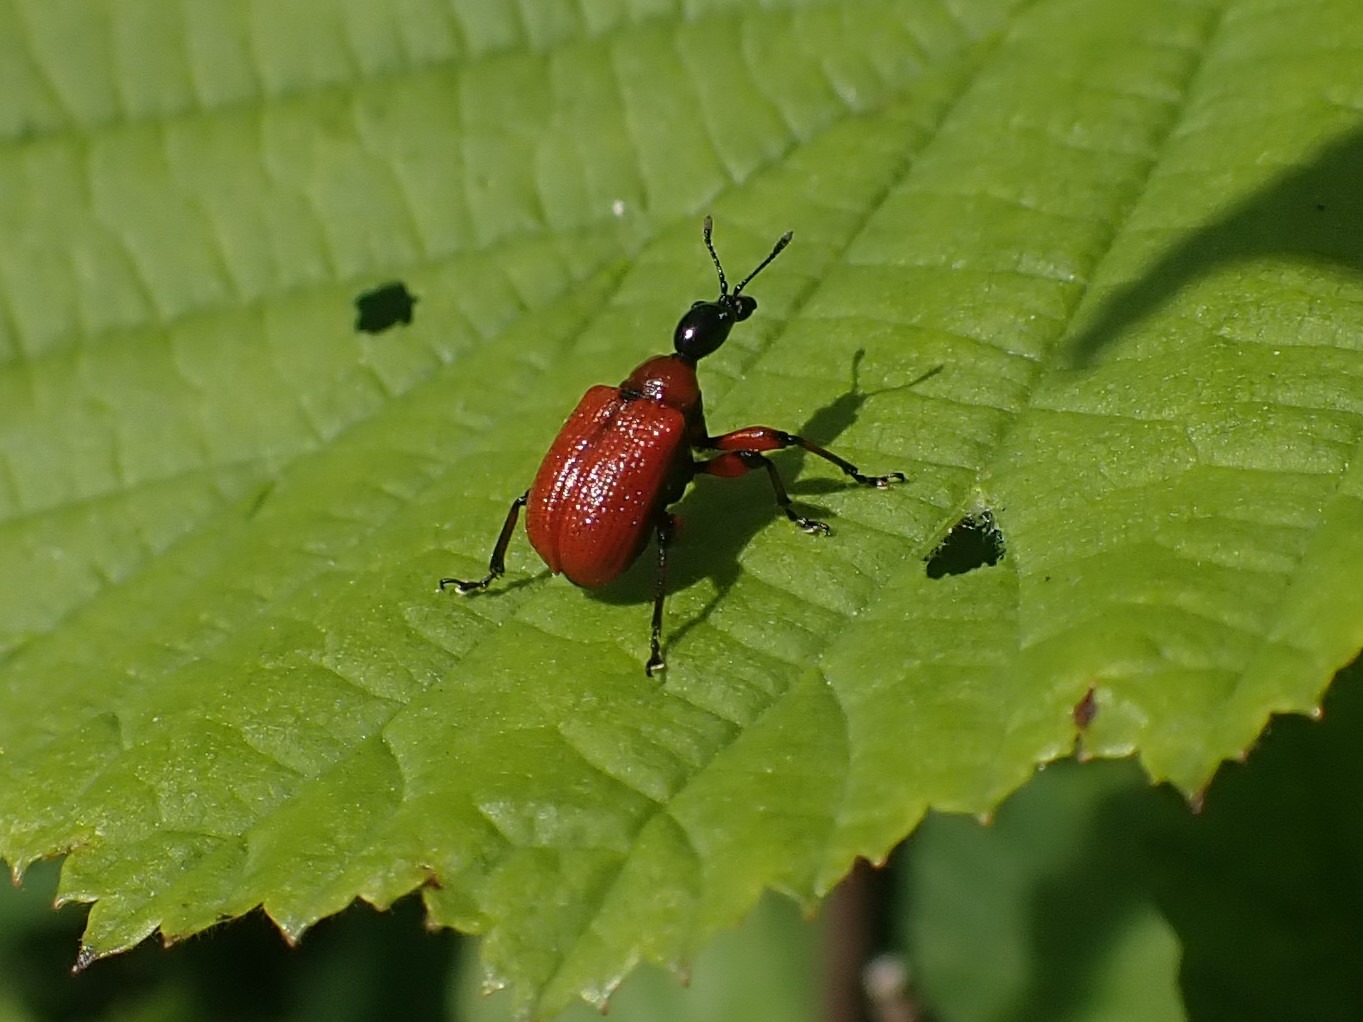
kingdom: Animalia
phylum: Arthropoda
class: Insecta
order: Coleoptera
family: Attelabidae
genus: Apoderus
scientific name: Apoderus coryli
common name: Hasselbladruller
